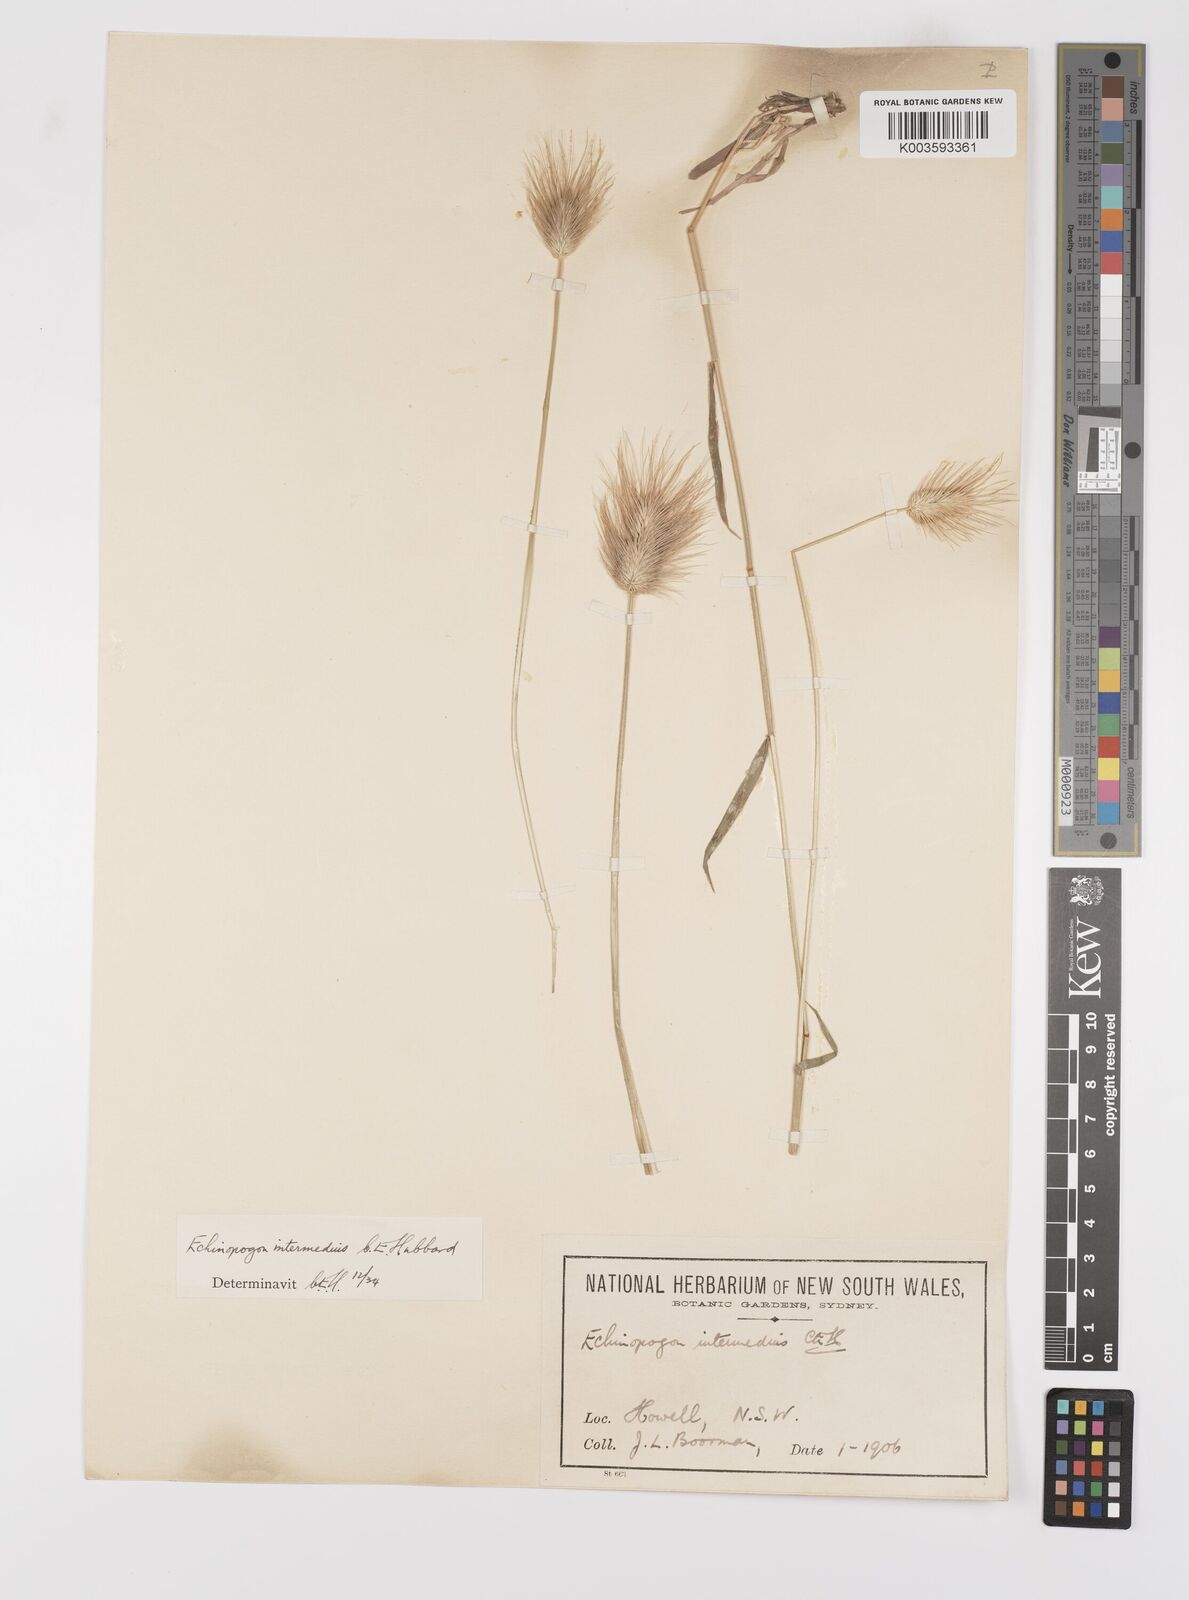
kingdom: Plantae
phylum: Tracheophyta
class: Liliopsida
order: Poales
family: Poaceae
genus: Echinopogon
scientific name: Echinopogon intermedius
